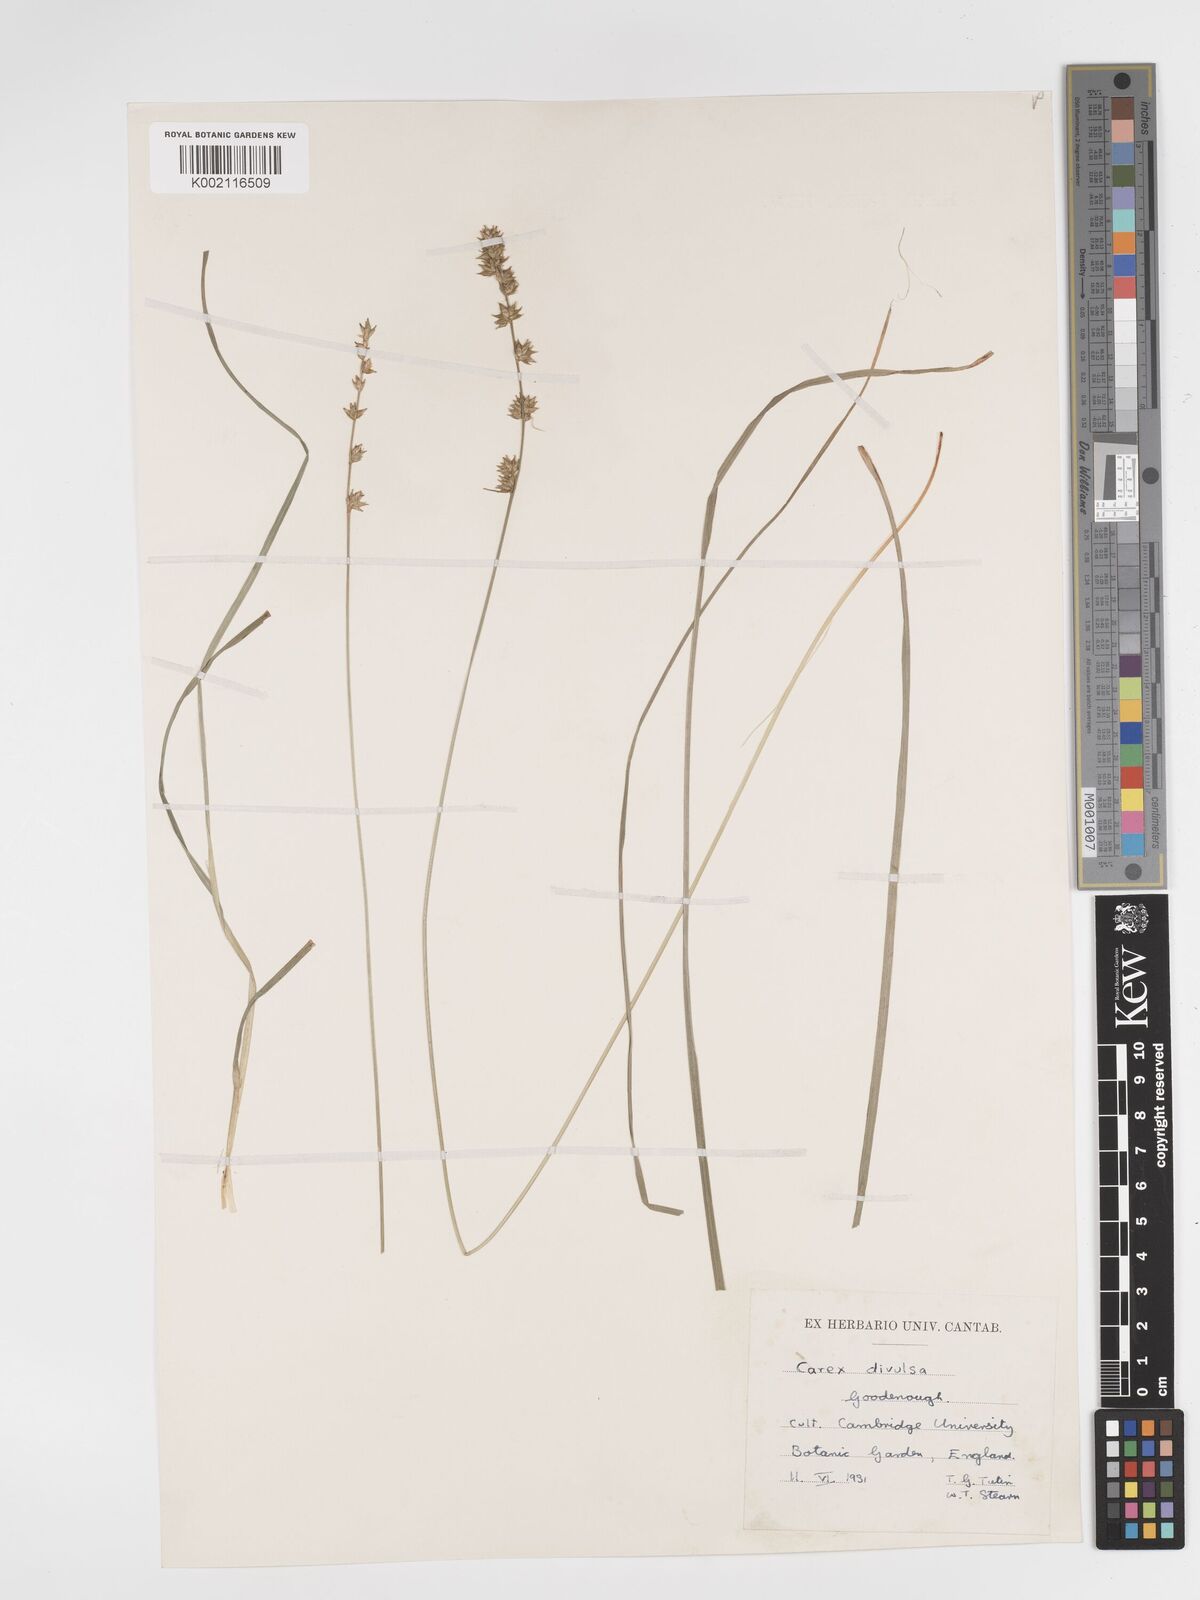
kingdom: Plantae
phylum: Tracheophyta
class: Liliopsida
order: Poales
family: Cyperaceae
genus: Carex
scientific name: Carex divulsa
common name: Grassland sedge
